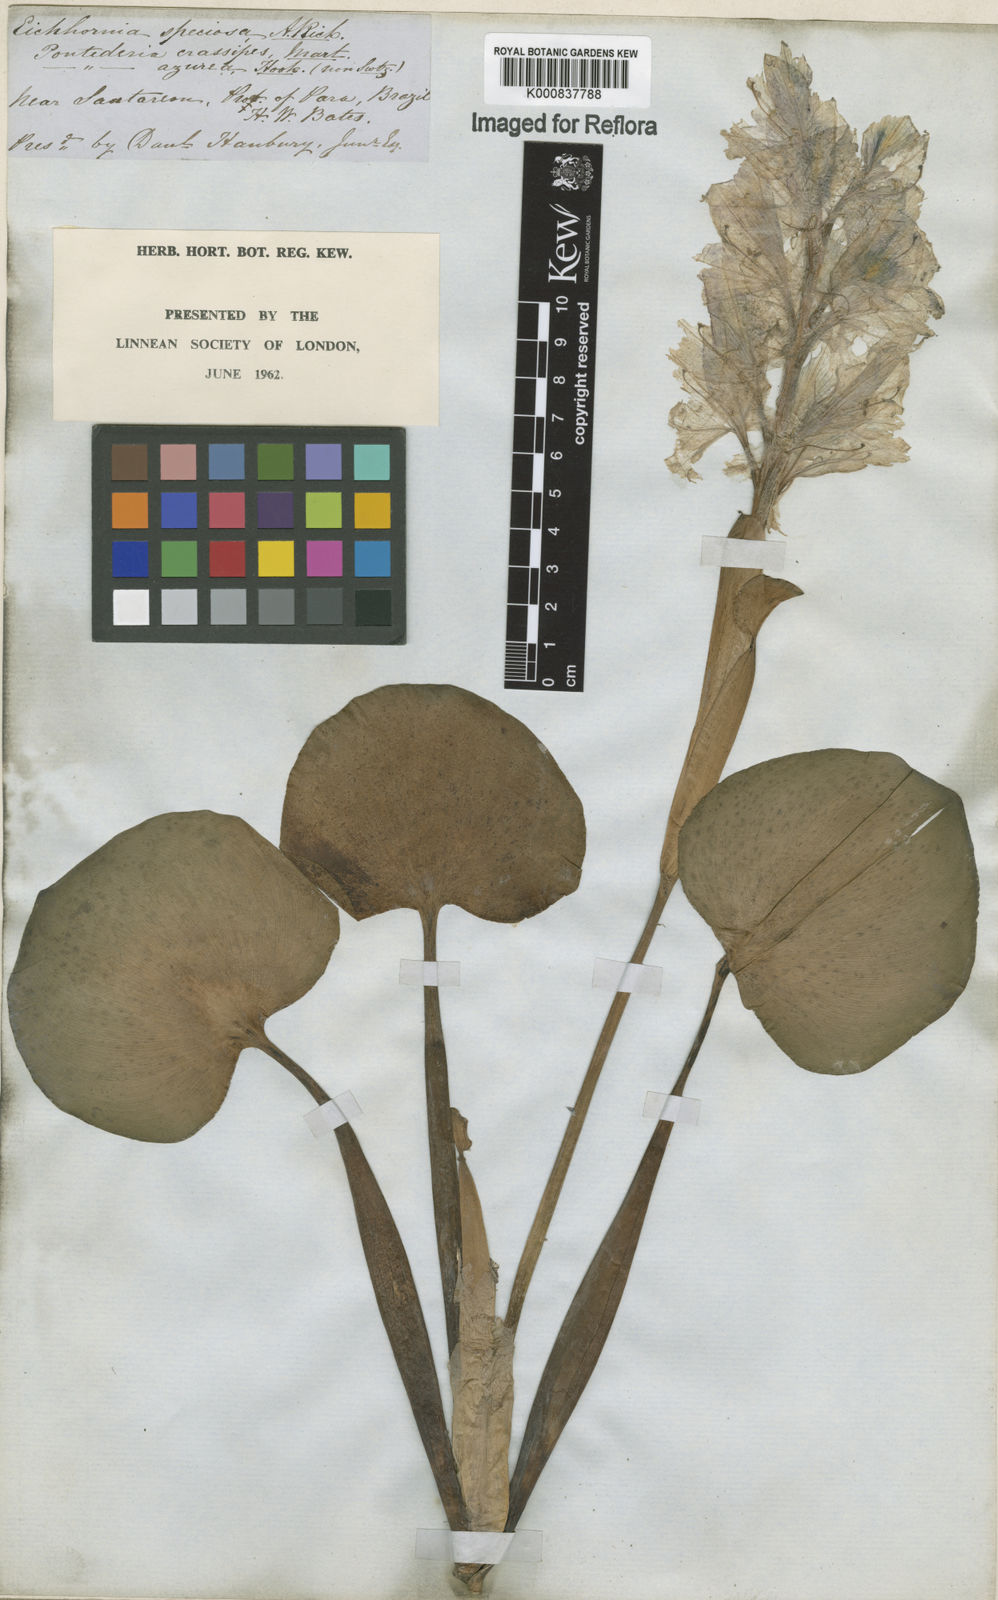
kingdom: Plantae
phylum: Tracheophyta
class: Liliopsida
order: Commelinales
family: Pontederiaceae
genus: Pontederia
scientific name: Pontederia crassipes
